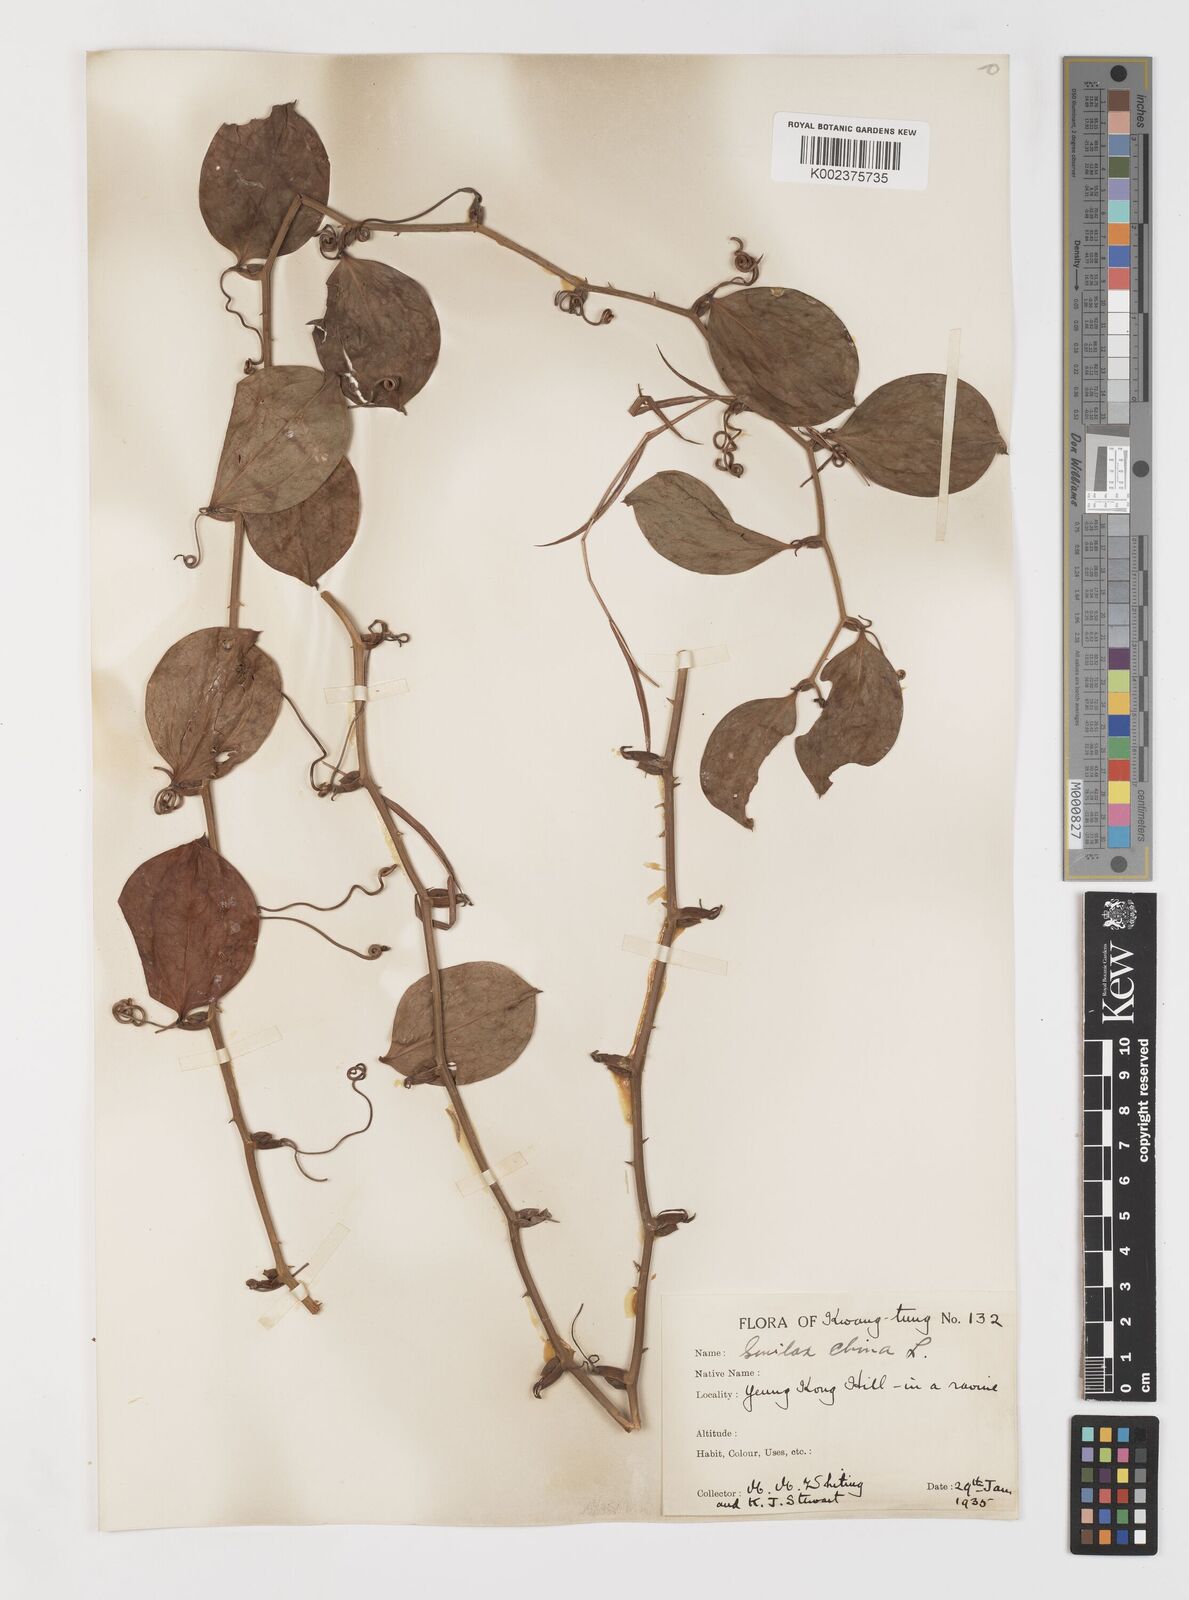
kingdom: Plantae
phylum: Tracheophyta
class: Liliopsida
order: Liliales
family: Smilacaceae
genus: Smilax
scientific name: Smilax china
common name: Chinaroot
